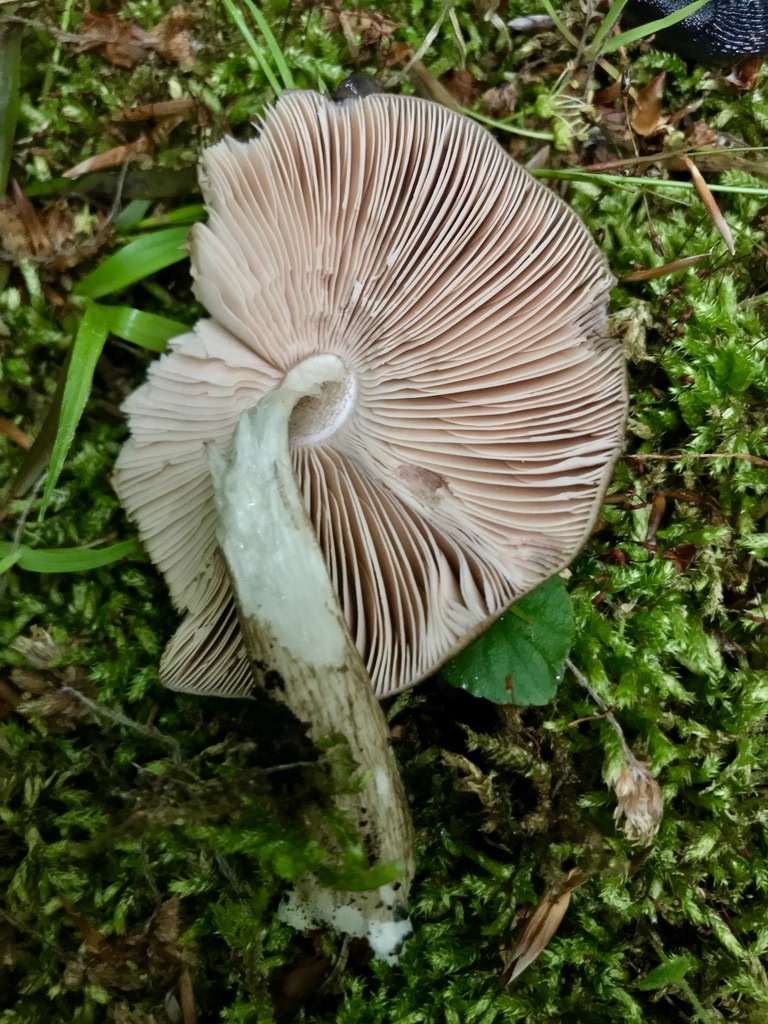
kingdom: Fungi
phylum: Basidiomycota
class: Agaricomycetes
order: Agaricales
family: Pluteaceae
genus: Pluteus
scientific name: Pluteus cervinus
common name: sodfarvet skærmhat
